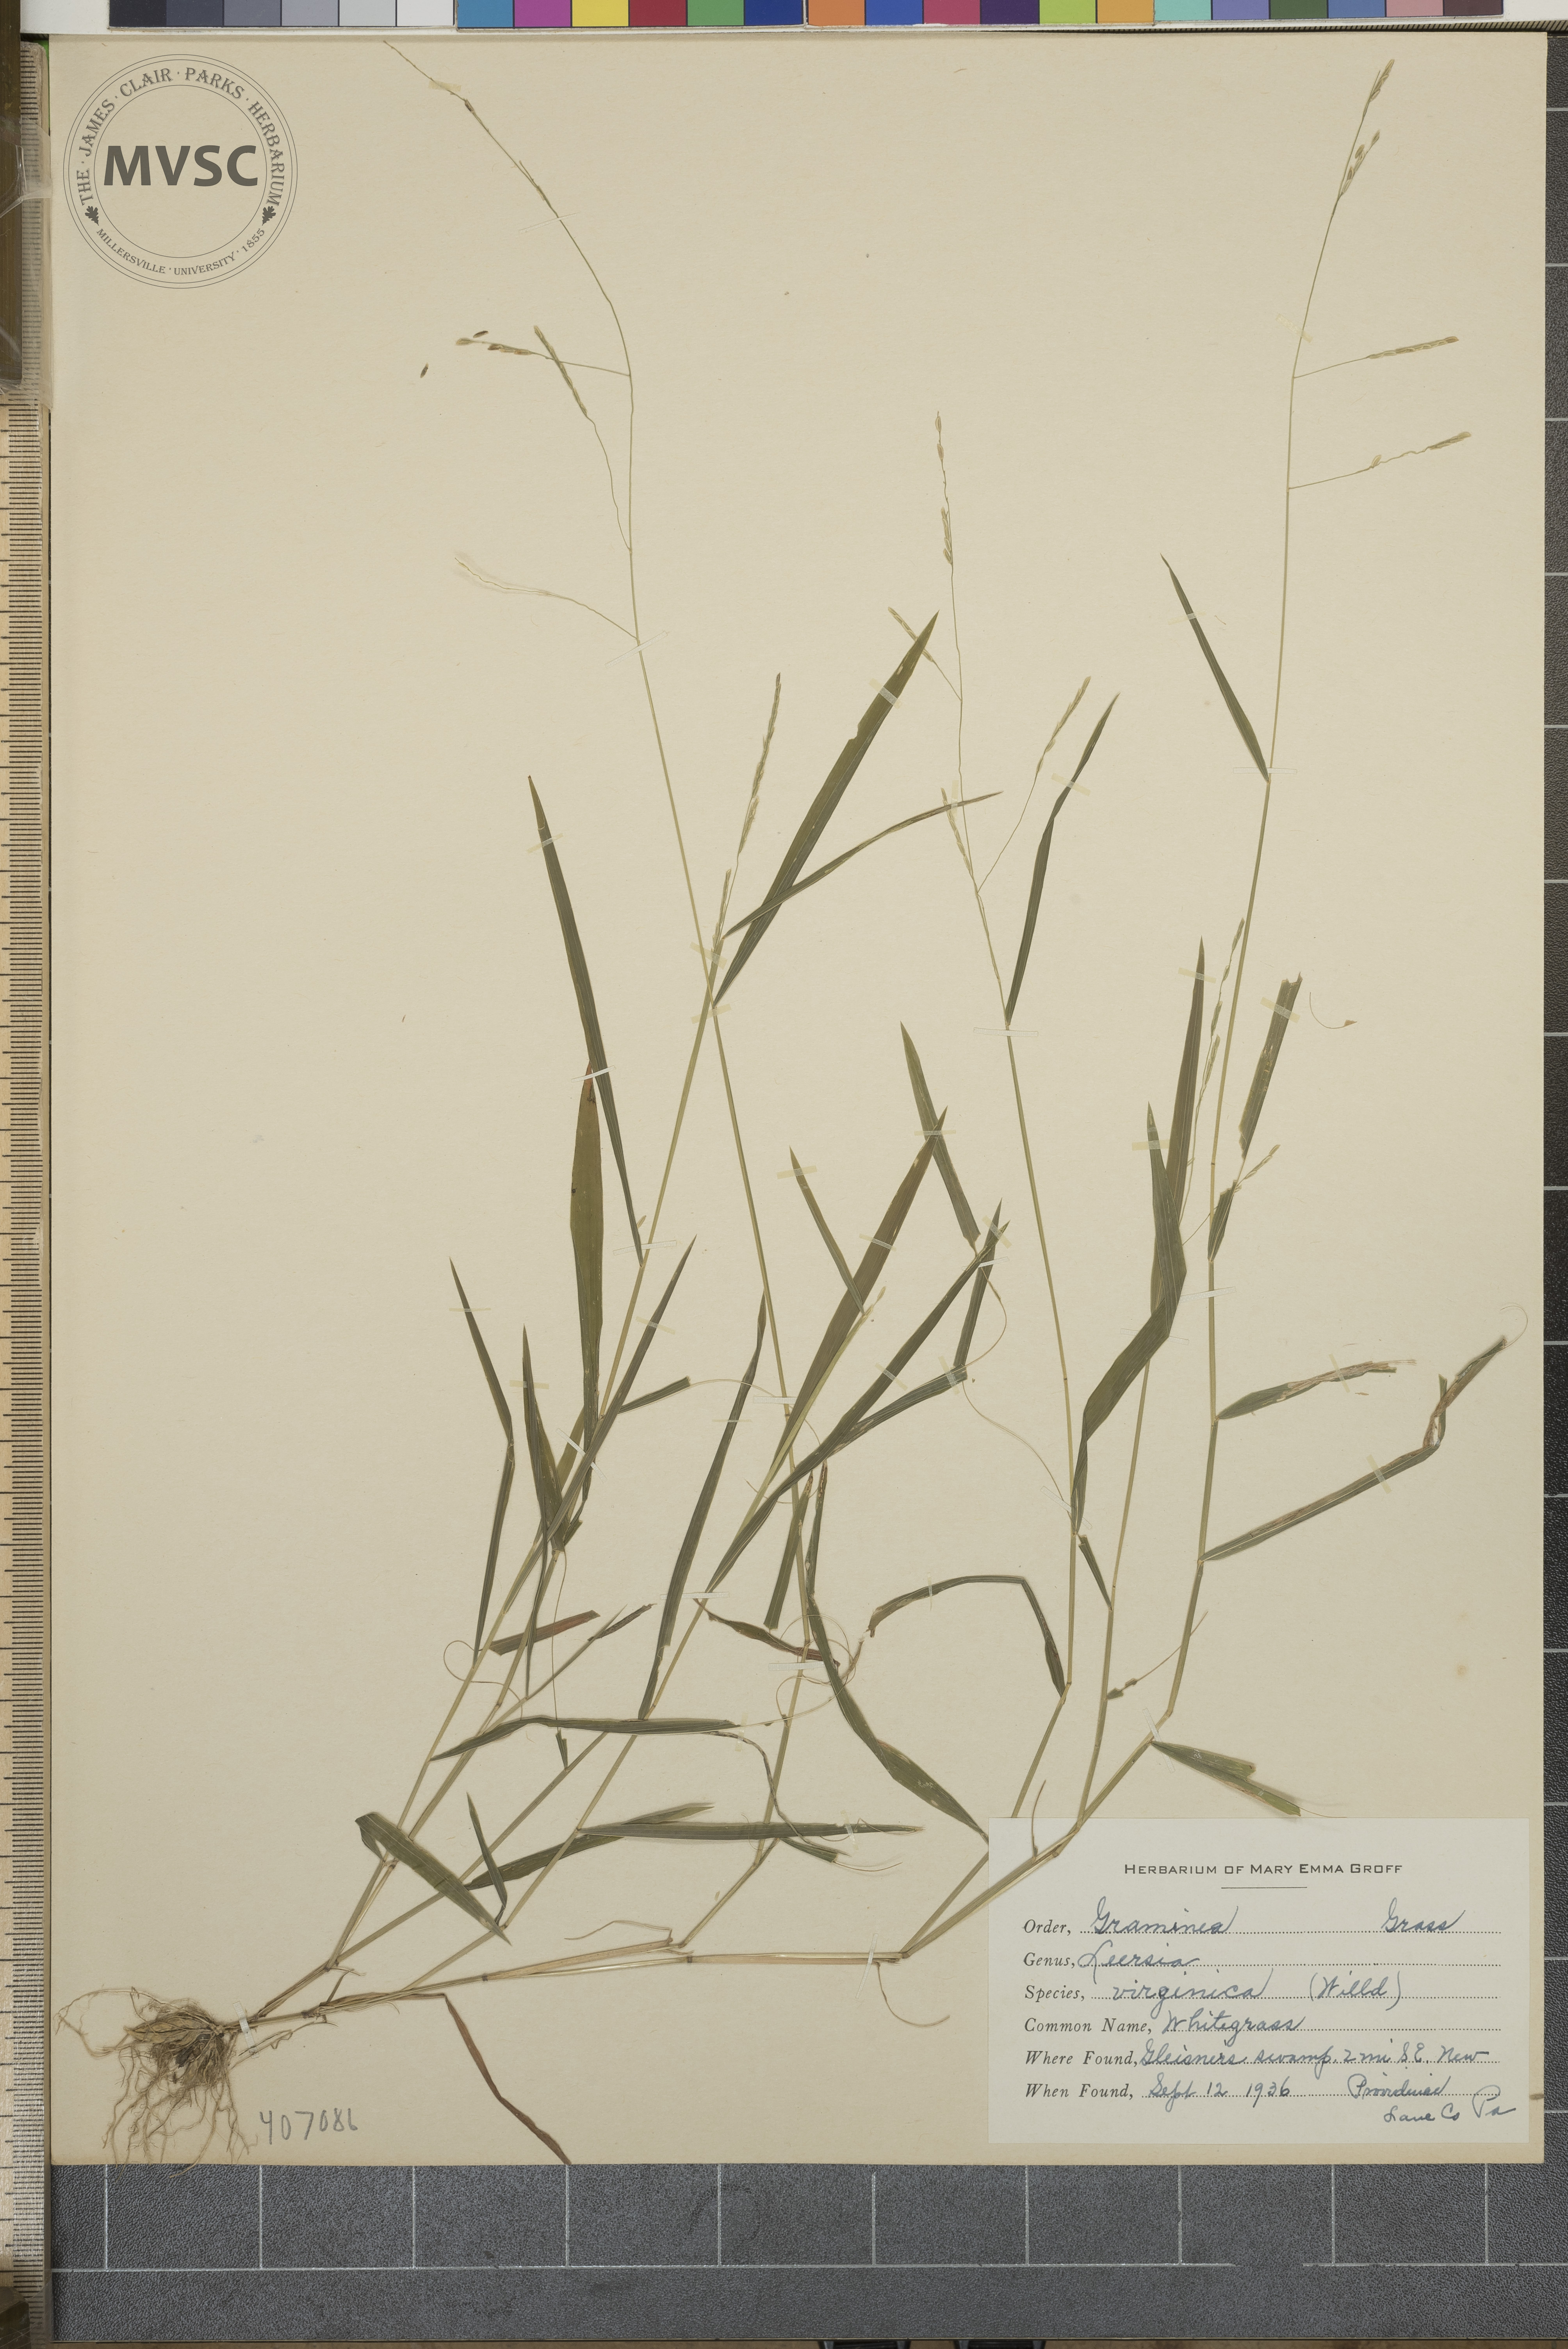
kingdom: Plantae
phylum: Tracheophyta
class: Liliopsida
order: Poales
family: Poaceae
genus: Leersia
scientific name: Leersia virginica
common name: White grass
